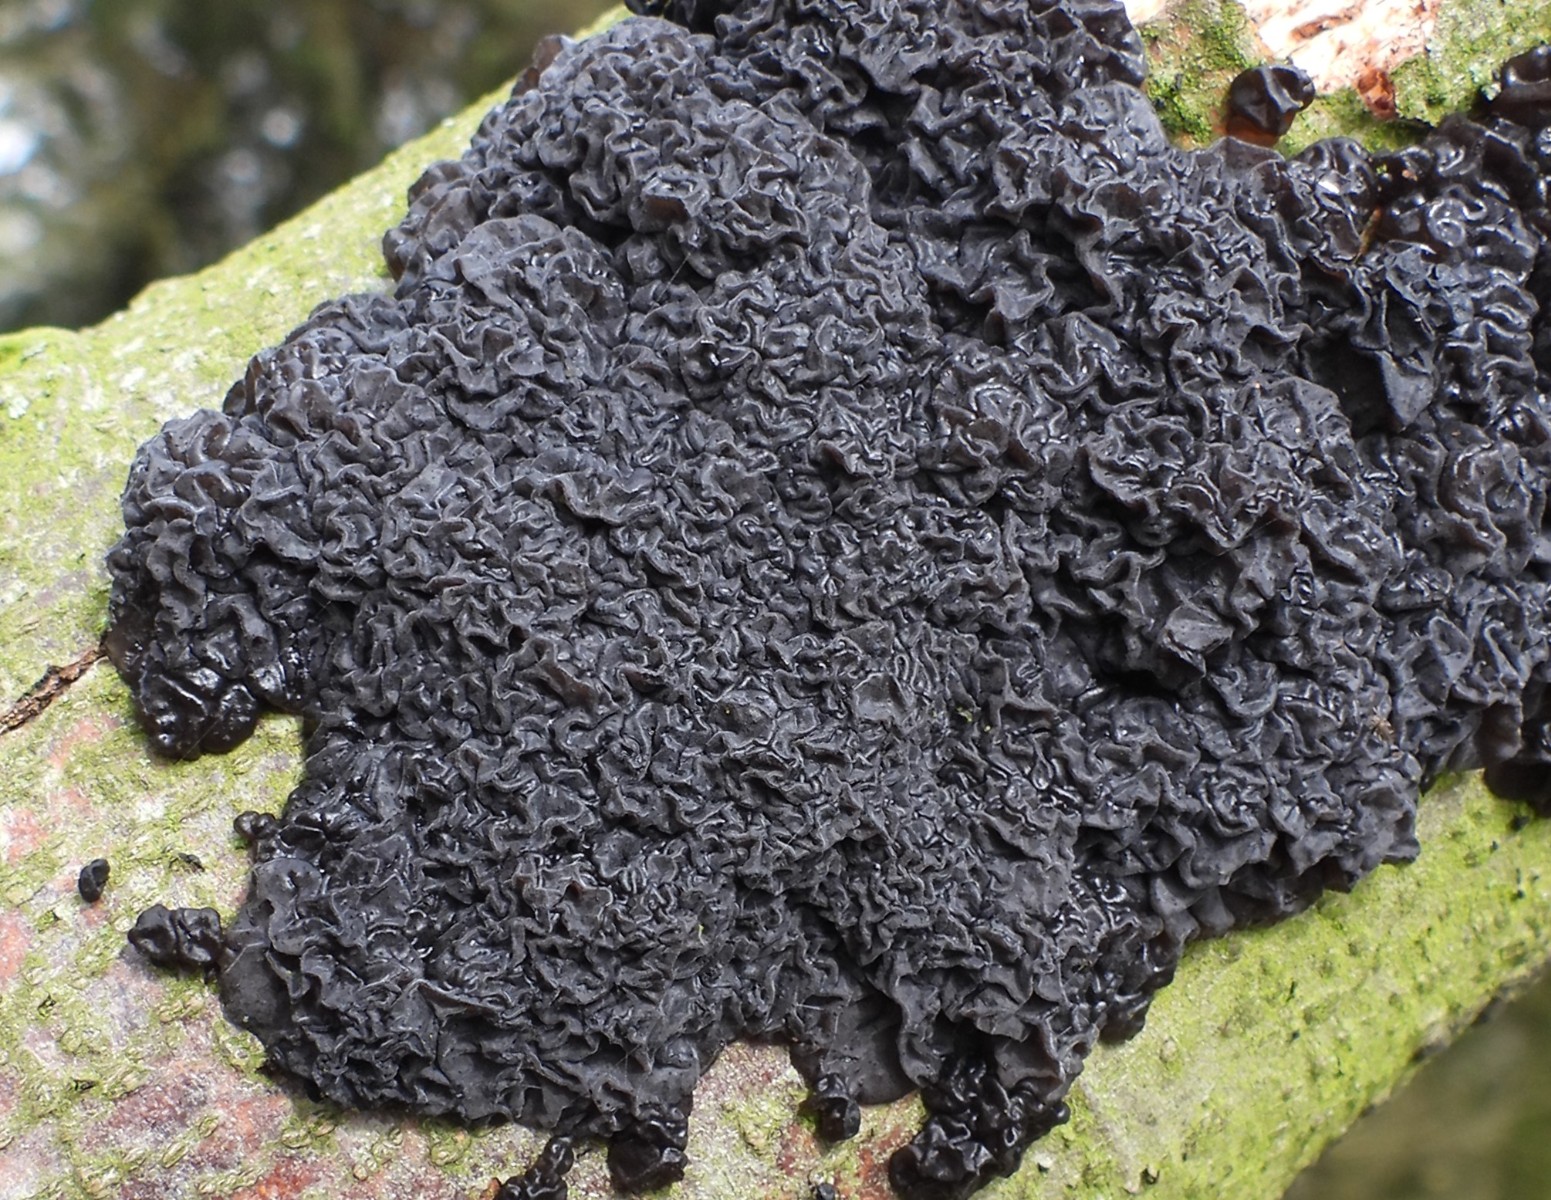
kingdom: Fungi
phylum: Basidiomycota
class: Agaricomycetes
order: Auriculariales
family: Auriculariaceae
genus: Exidia
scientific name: Exidia nigricans
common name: almindelig bævretop
